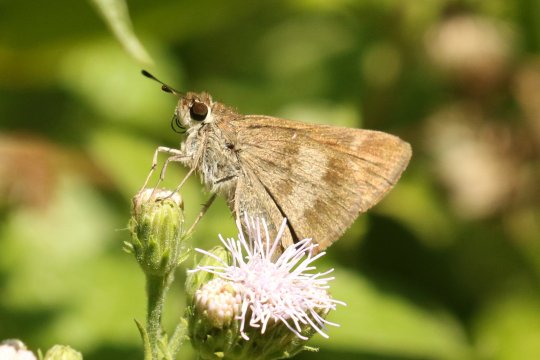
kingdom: Animalia
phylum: Arthropoda
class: Insecta
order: Lepidoptera
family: Hesperiidae
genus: Polites
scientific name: Polites vibex
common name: Whirlabout
